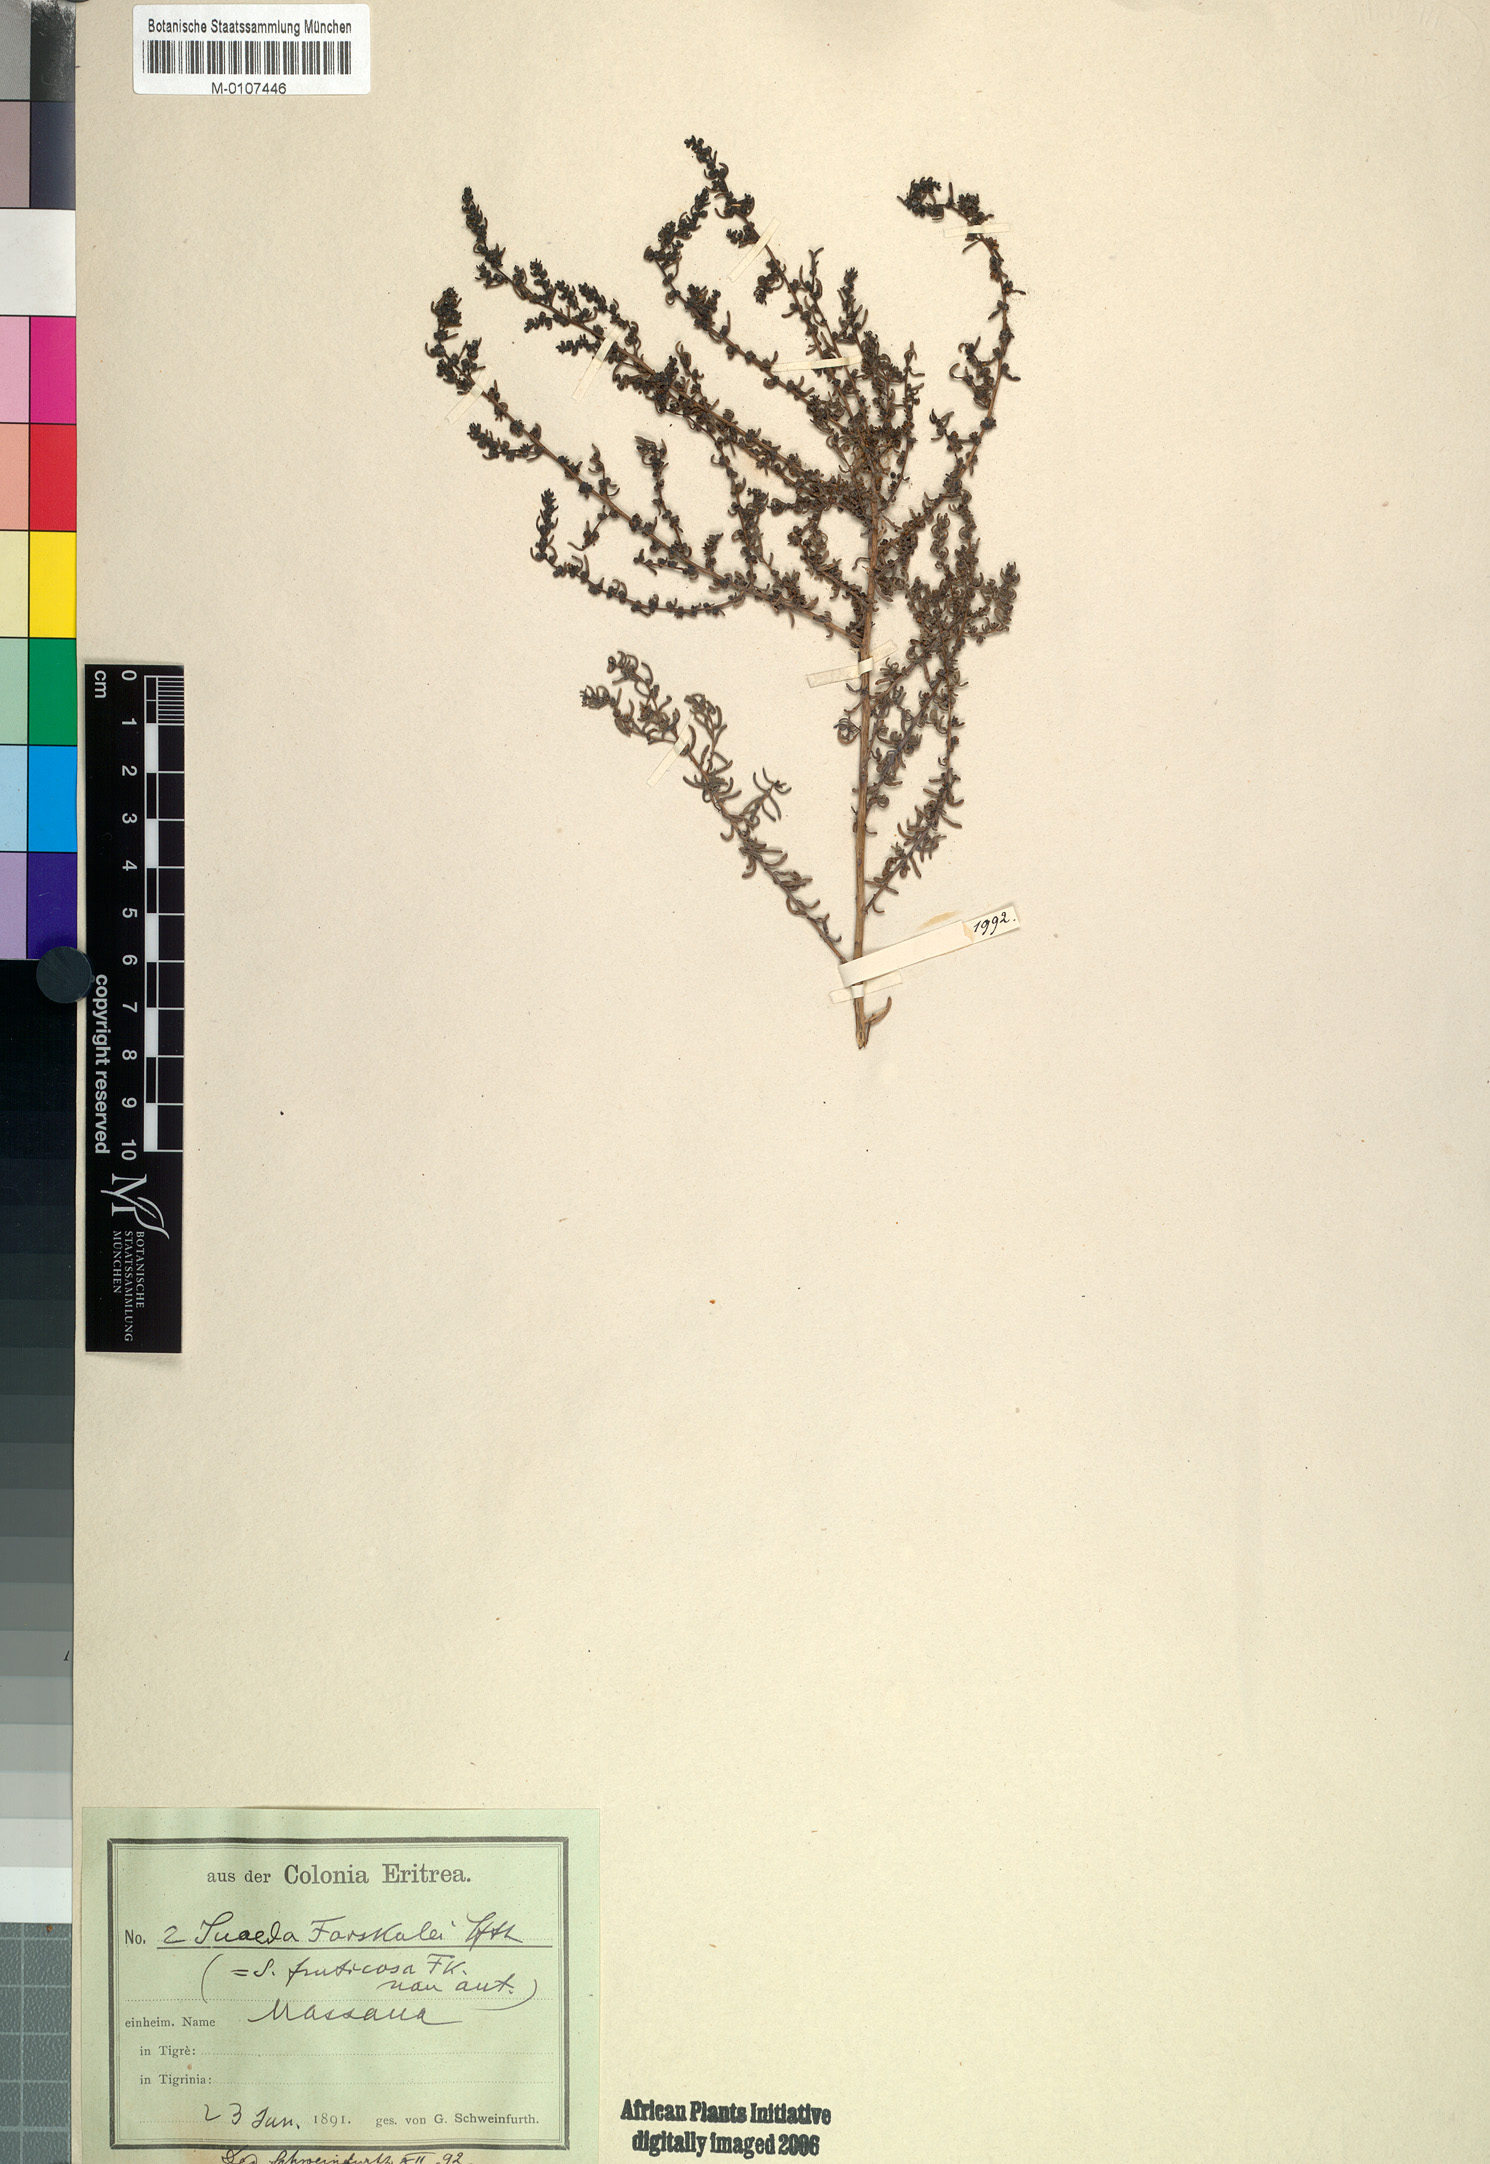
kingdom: Plantae
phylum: Tracheophyta
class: Magnoliopsida
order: Caryophyllales
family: Amaranthaceae
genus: Suaeda
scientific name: Suaeda
